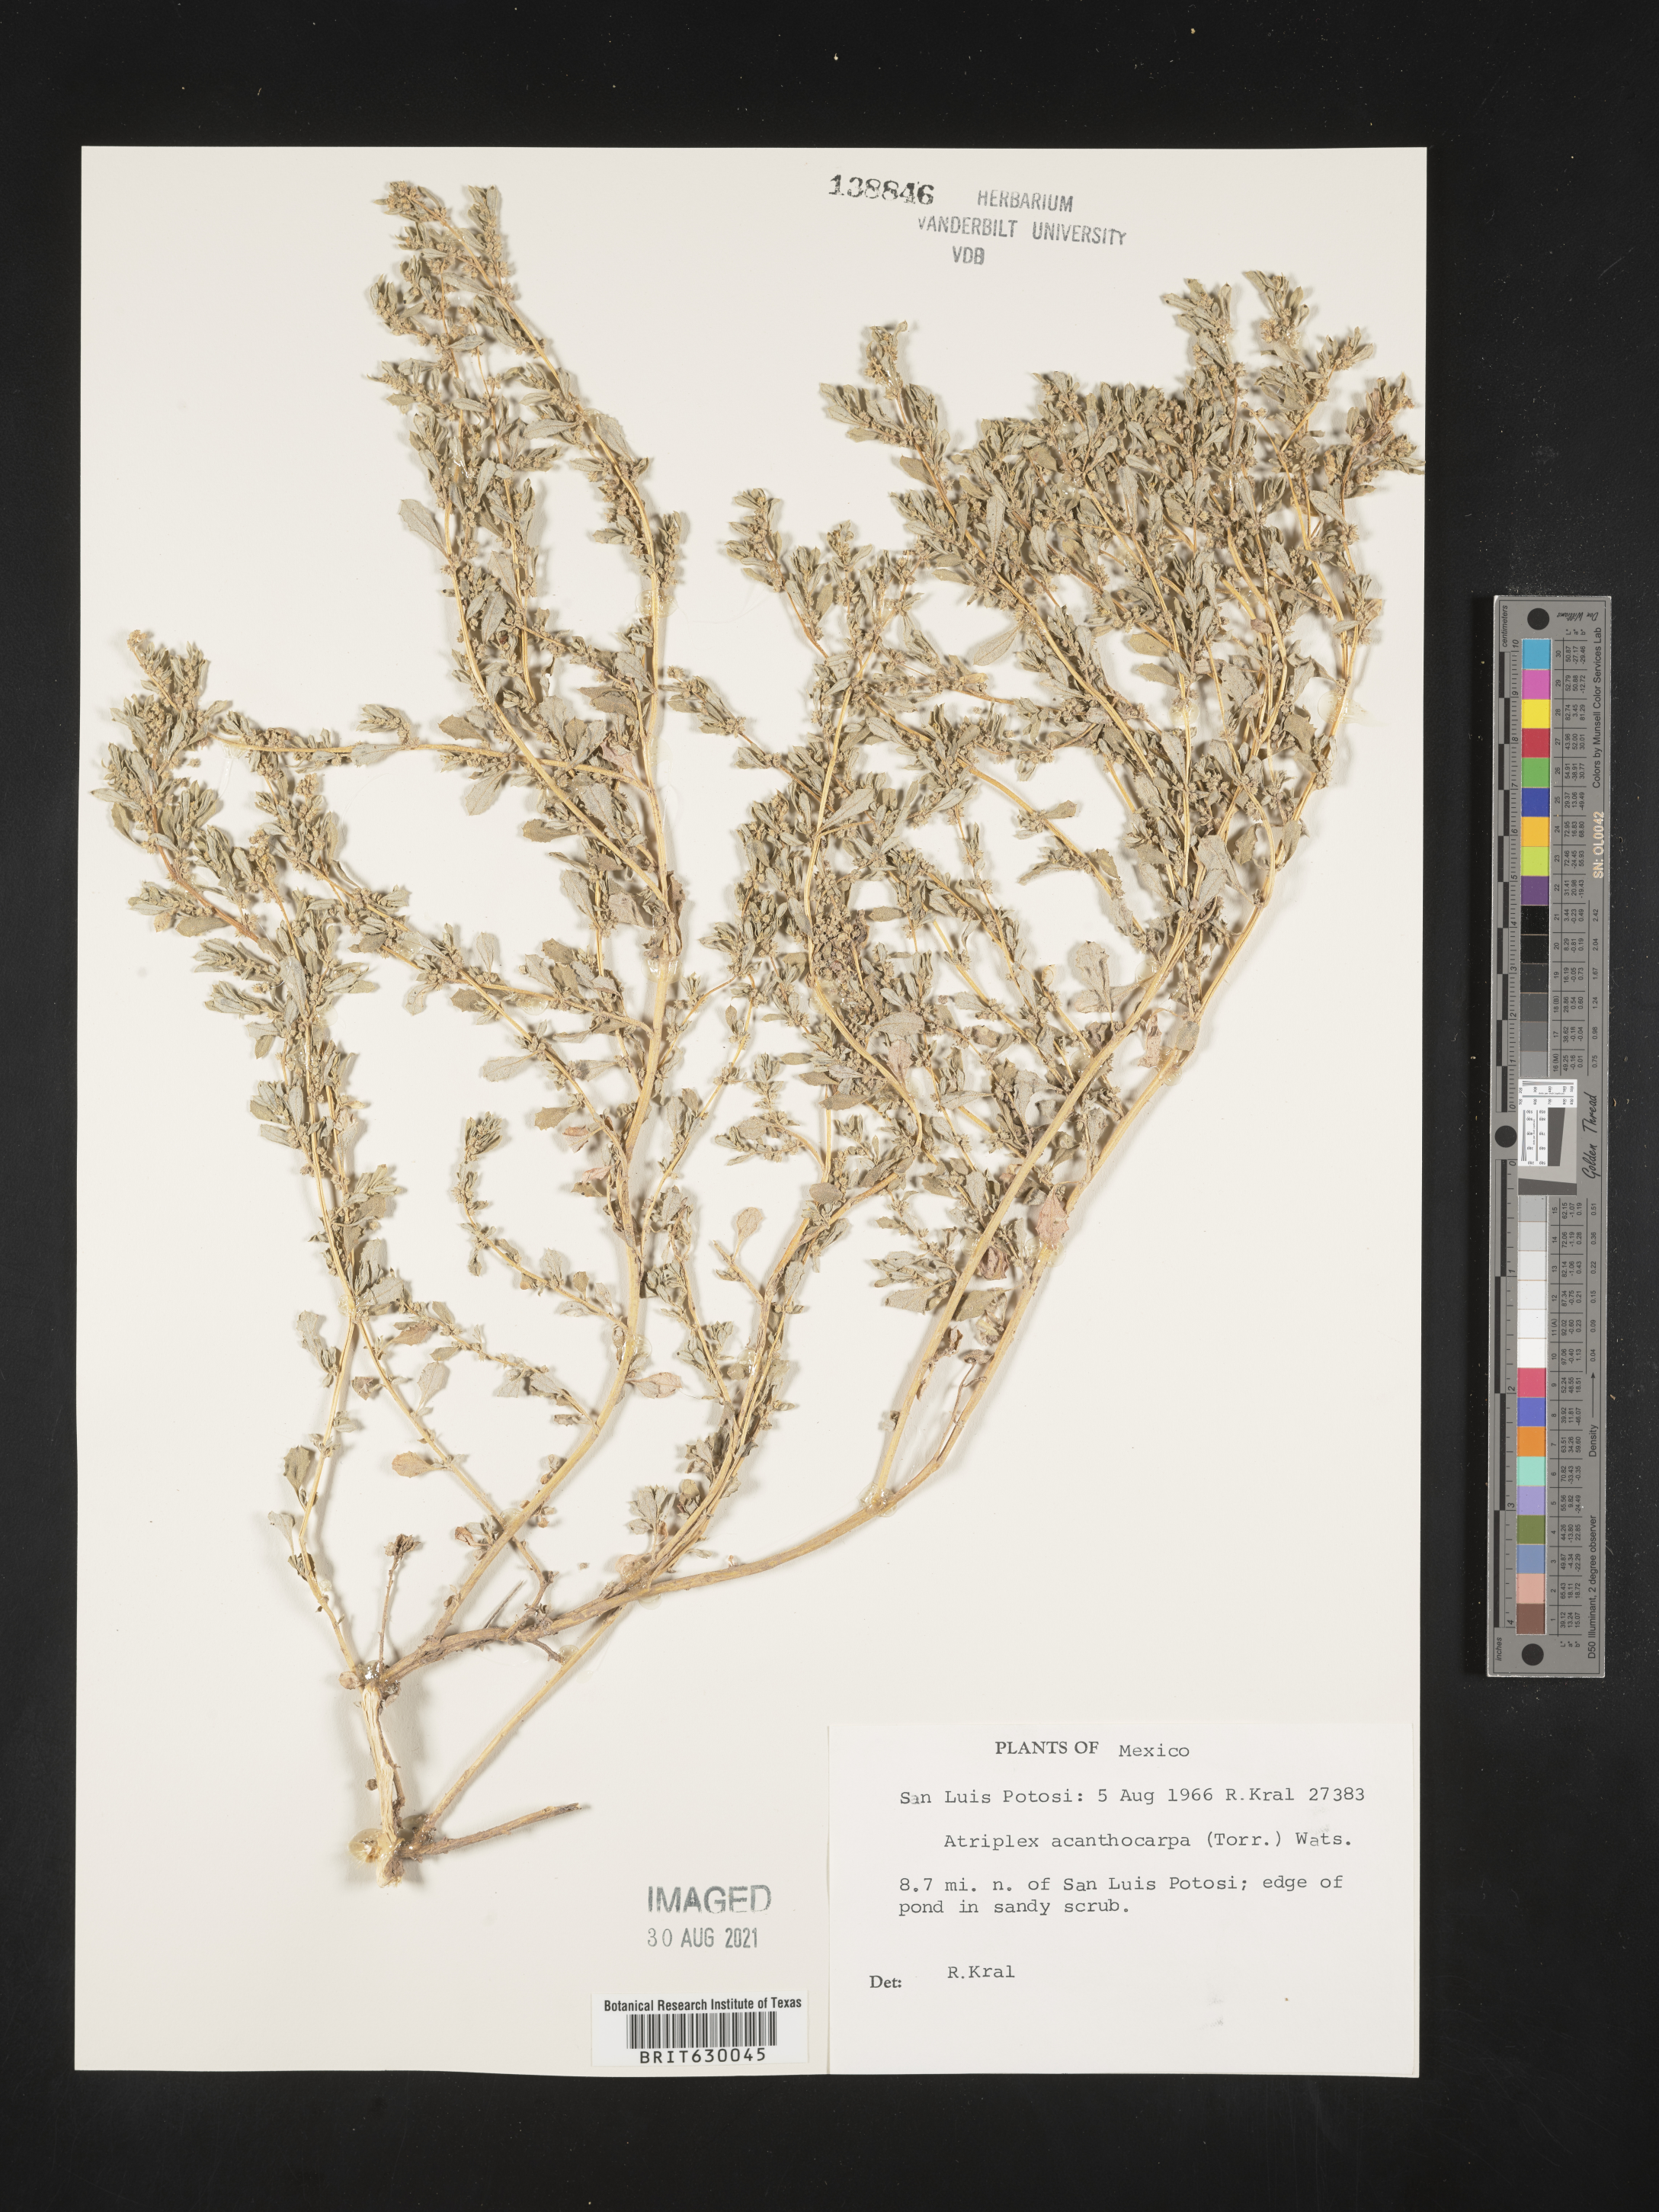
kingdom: Plantae
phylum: Tracheophyta
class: Magnoliopsida
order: Caryophyllales
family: Amaranthaceae
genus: Atriplex
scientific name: Atriplex
